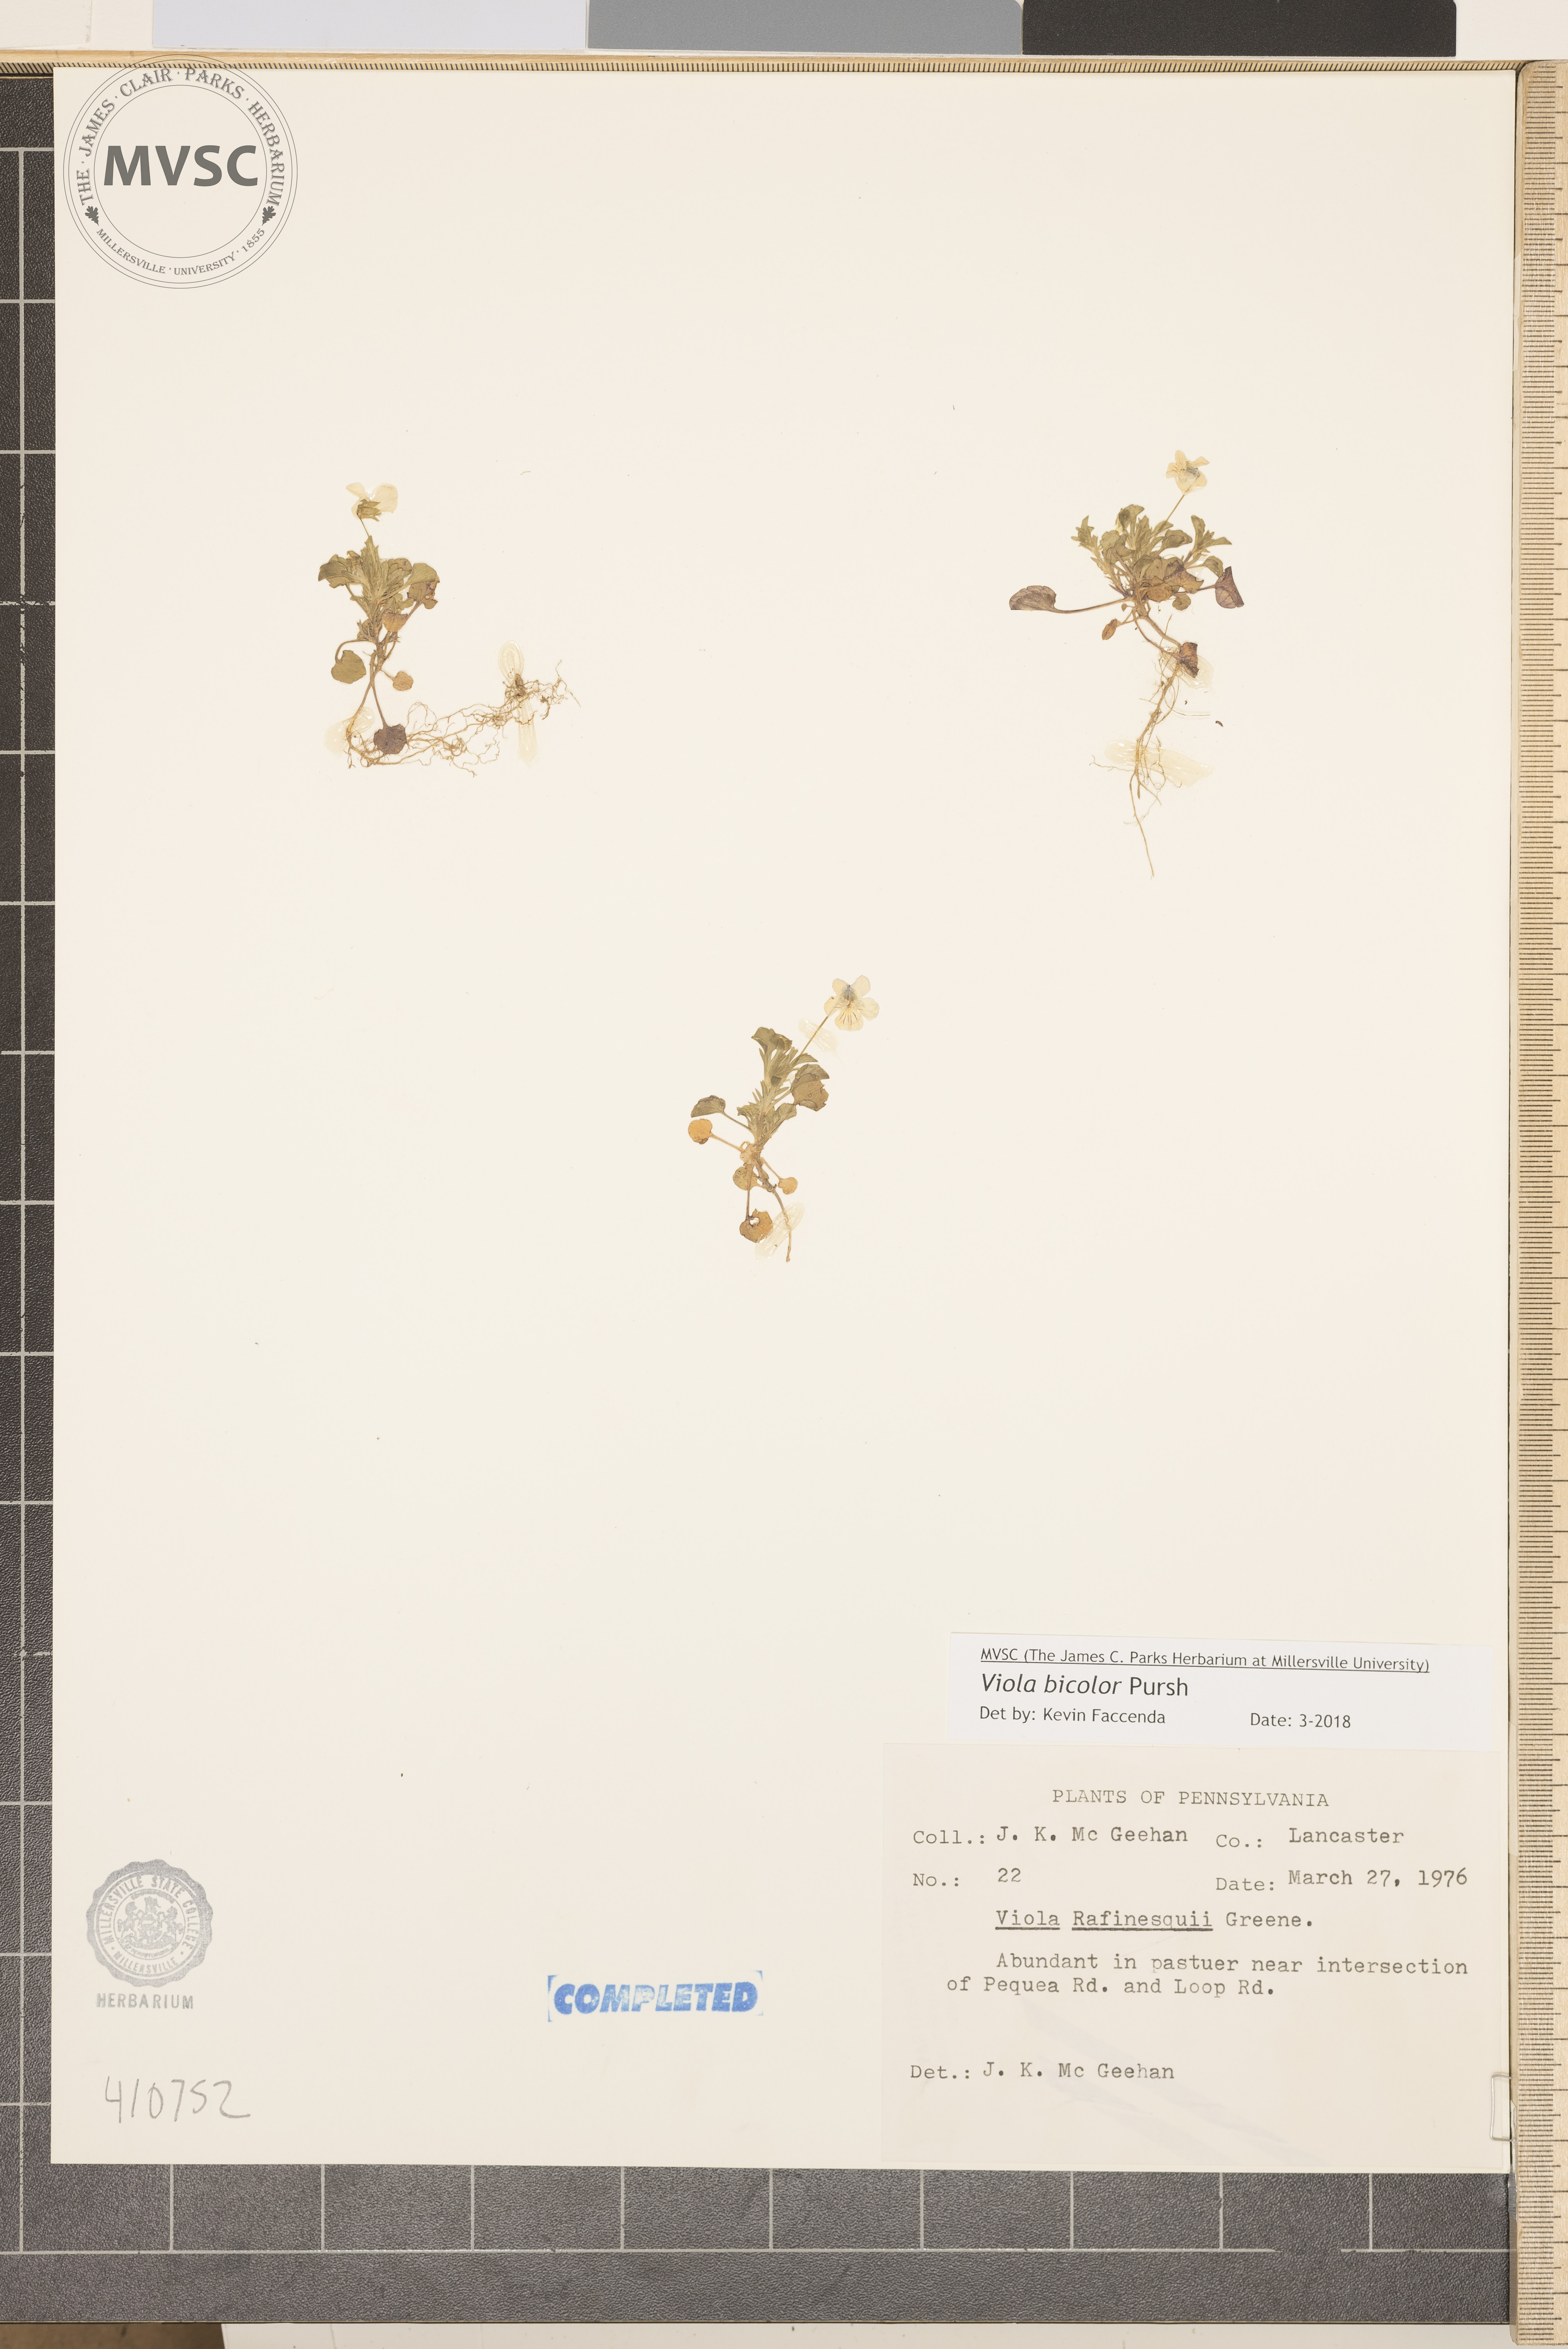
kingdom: Plantae
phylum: Tracheophyta
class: Magnoliopsida
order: Malpighiales
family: Violaceae
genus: Viola
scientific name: Viola rafinesquei
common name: American field pansy
